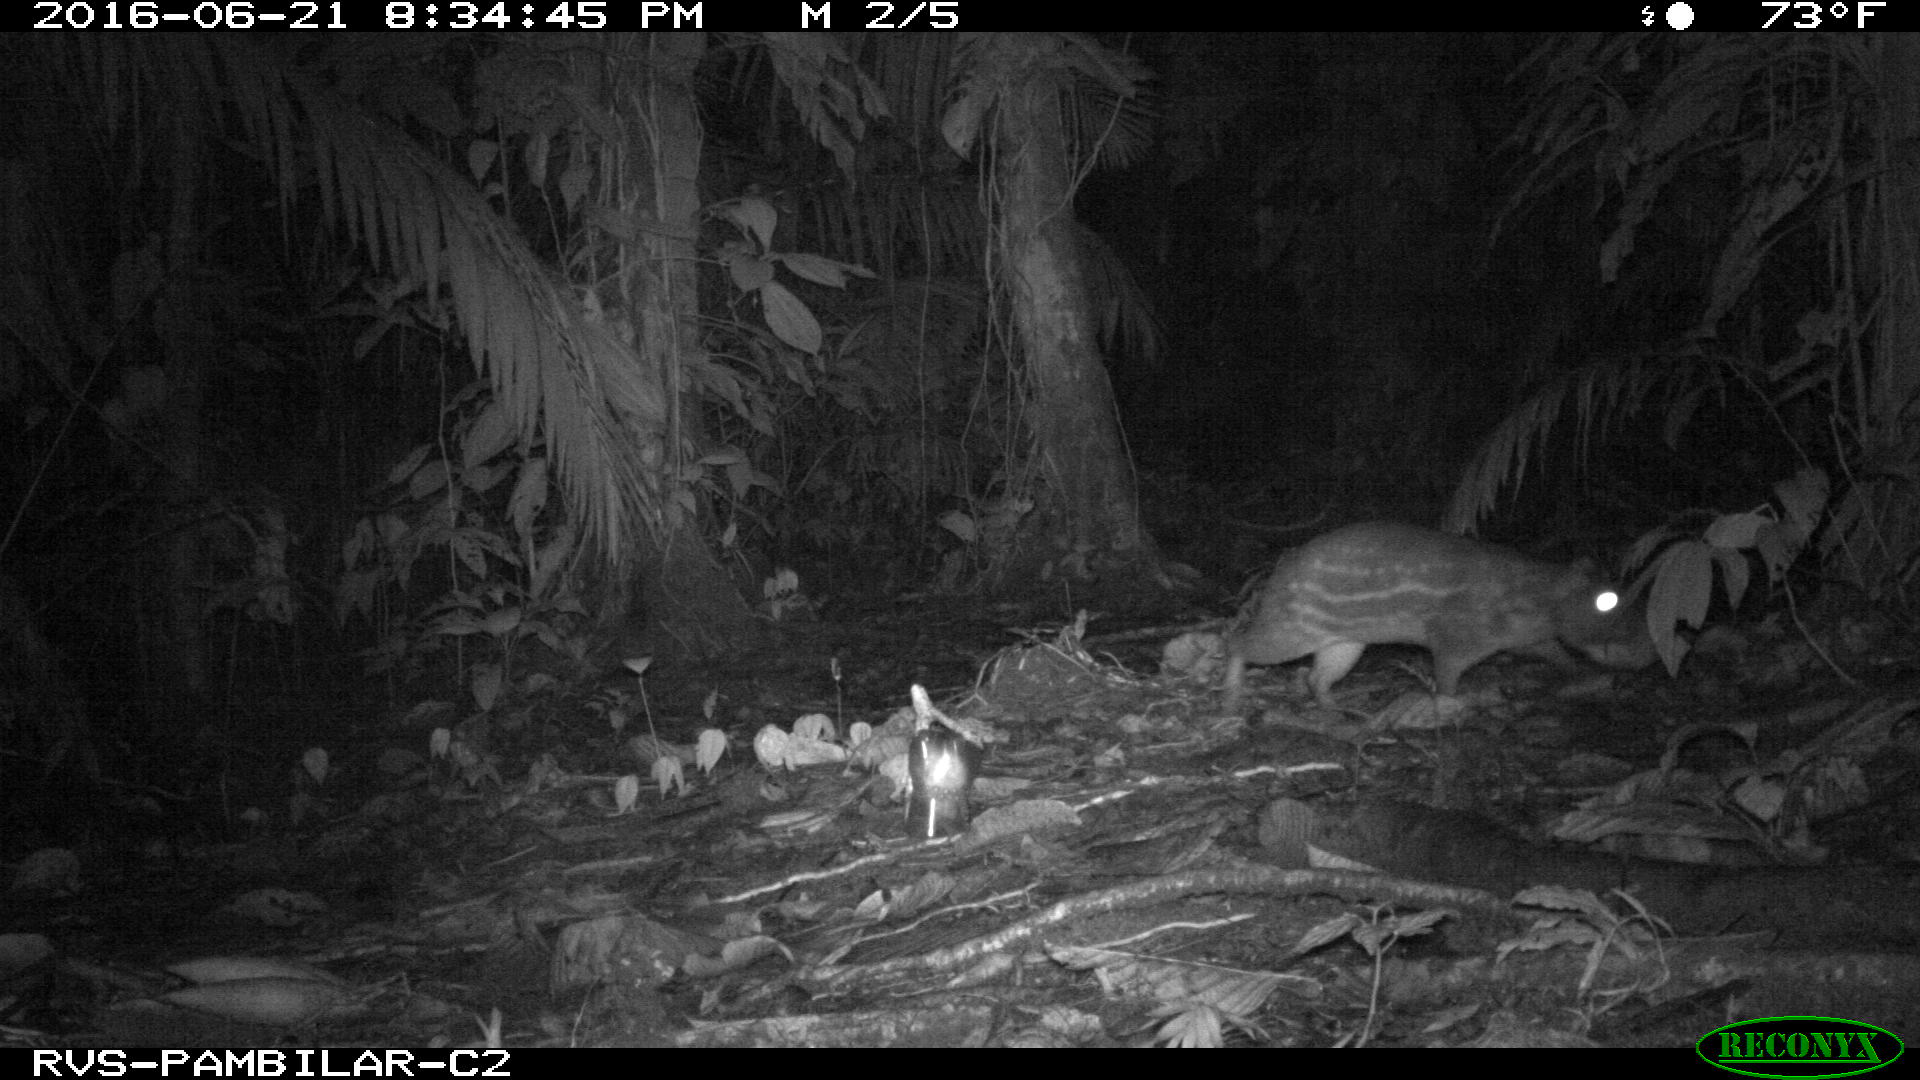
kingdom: Animalia
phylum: Chordata
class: Mammalia
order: Rodentia
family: Cuniculidae
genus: Cuniculus
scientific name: Cuniculus paca
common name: Lowland paca
